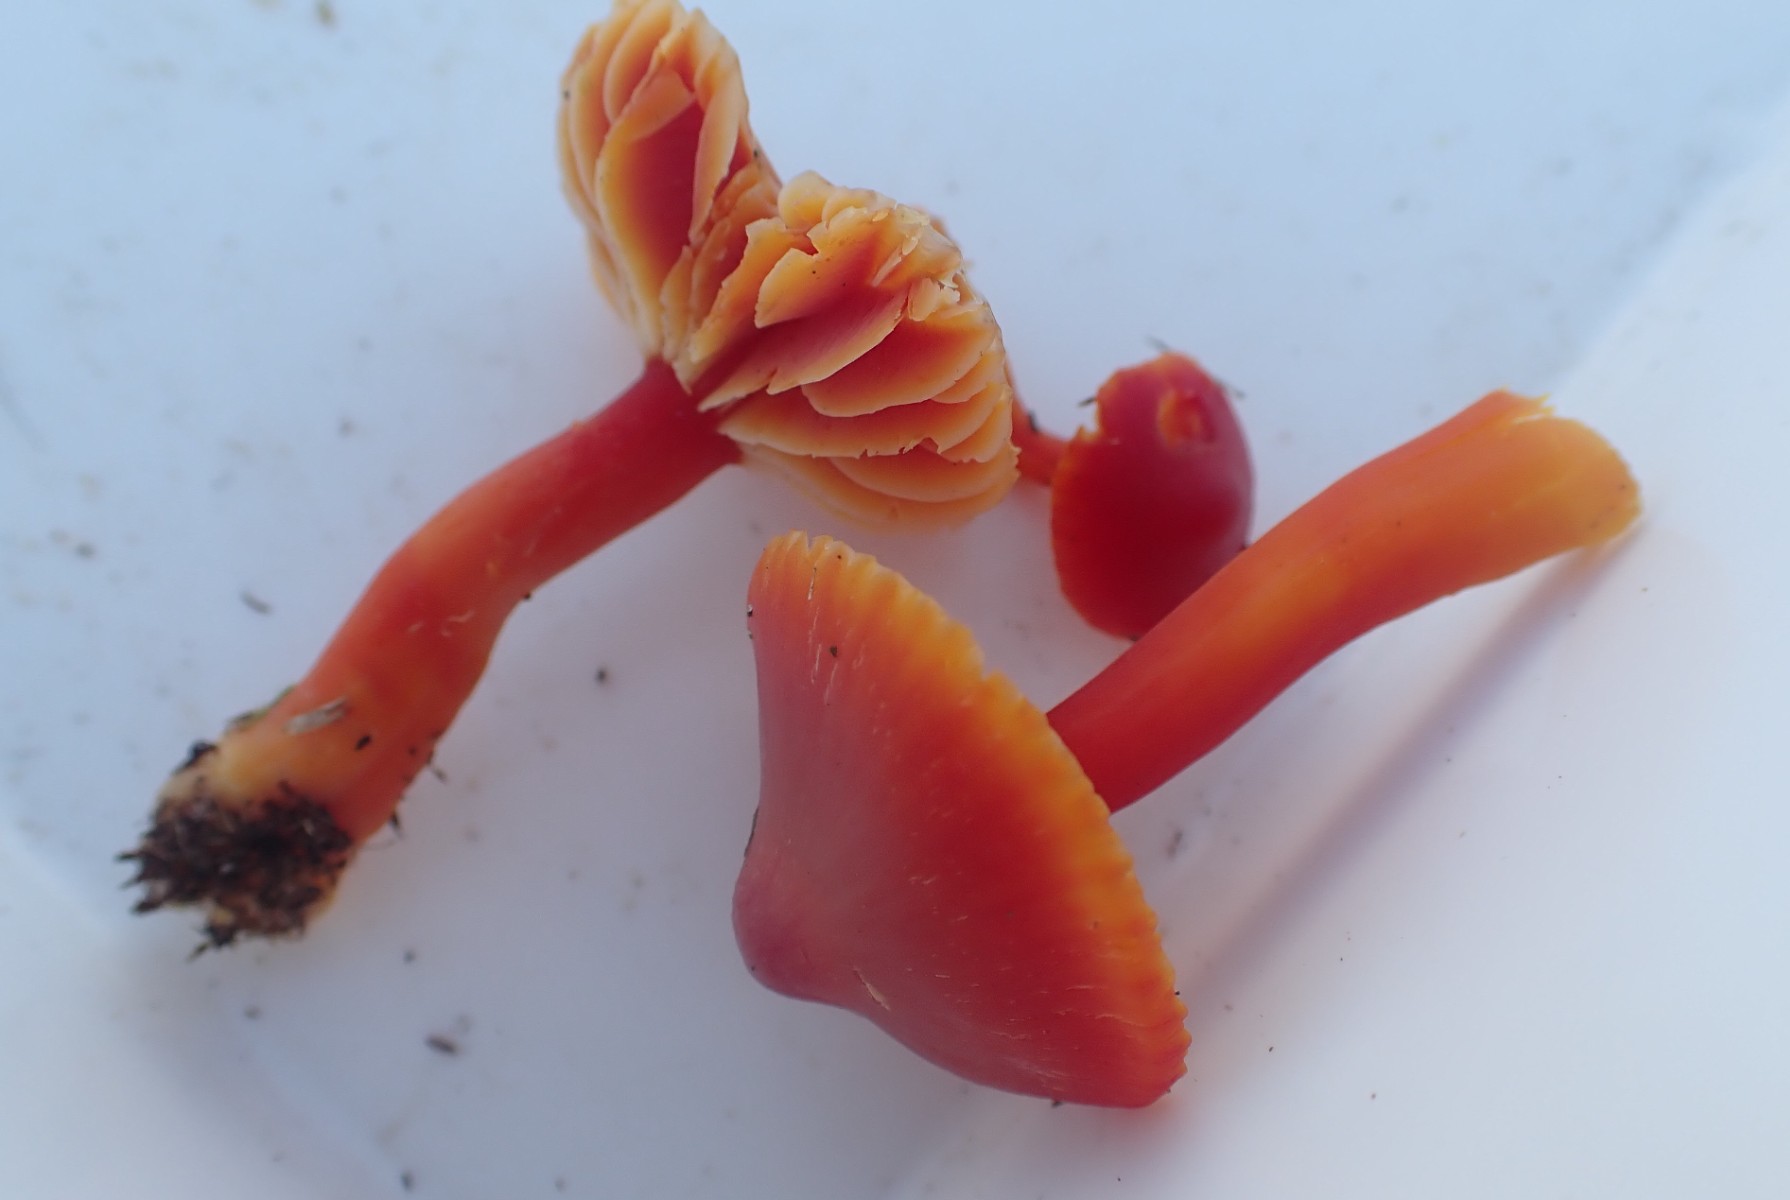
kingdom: Fungi
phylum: Basidiomycota
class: Agaricomycetes
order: Agaricales
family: Hygrophoraceae
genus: Hygrocybe
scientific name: Hygrocybe coccinea
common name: cinnober-vokshat
